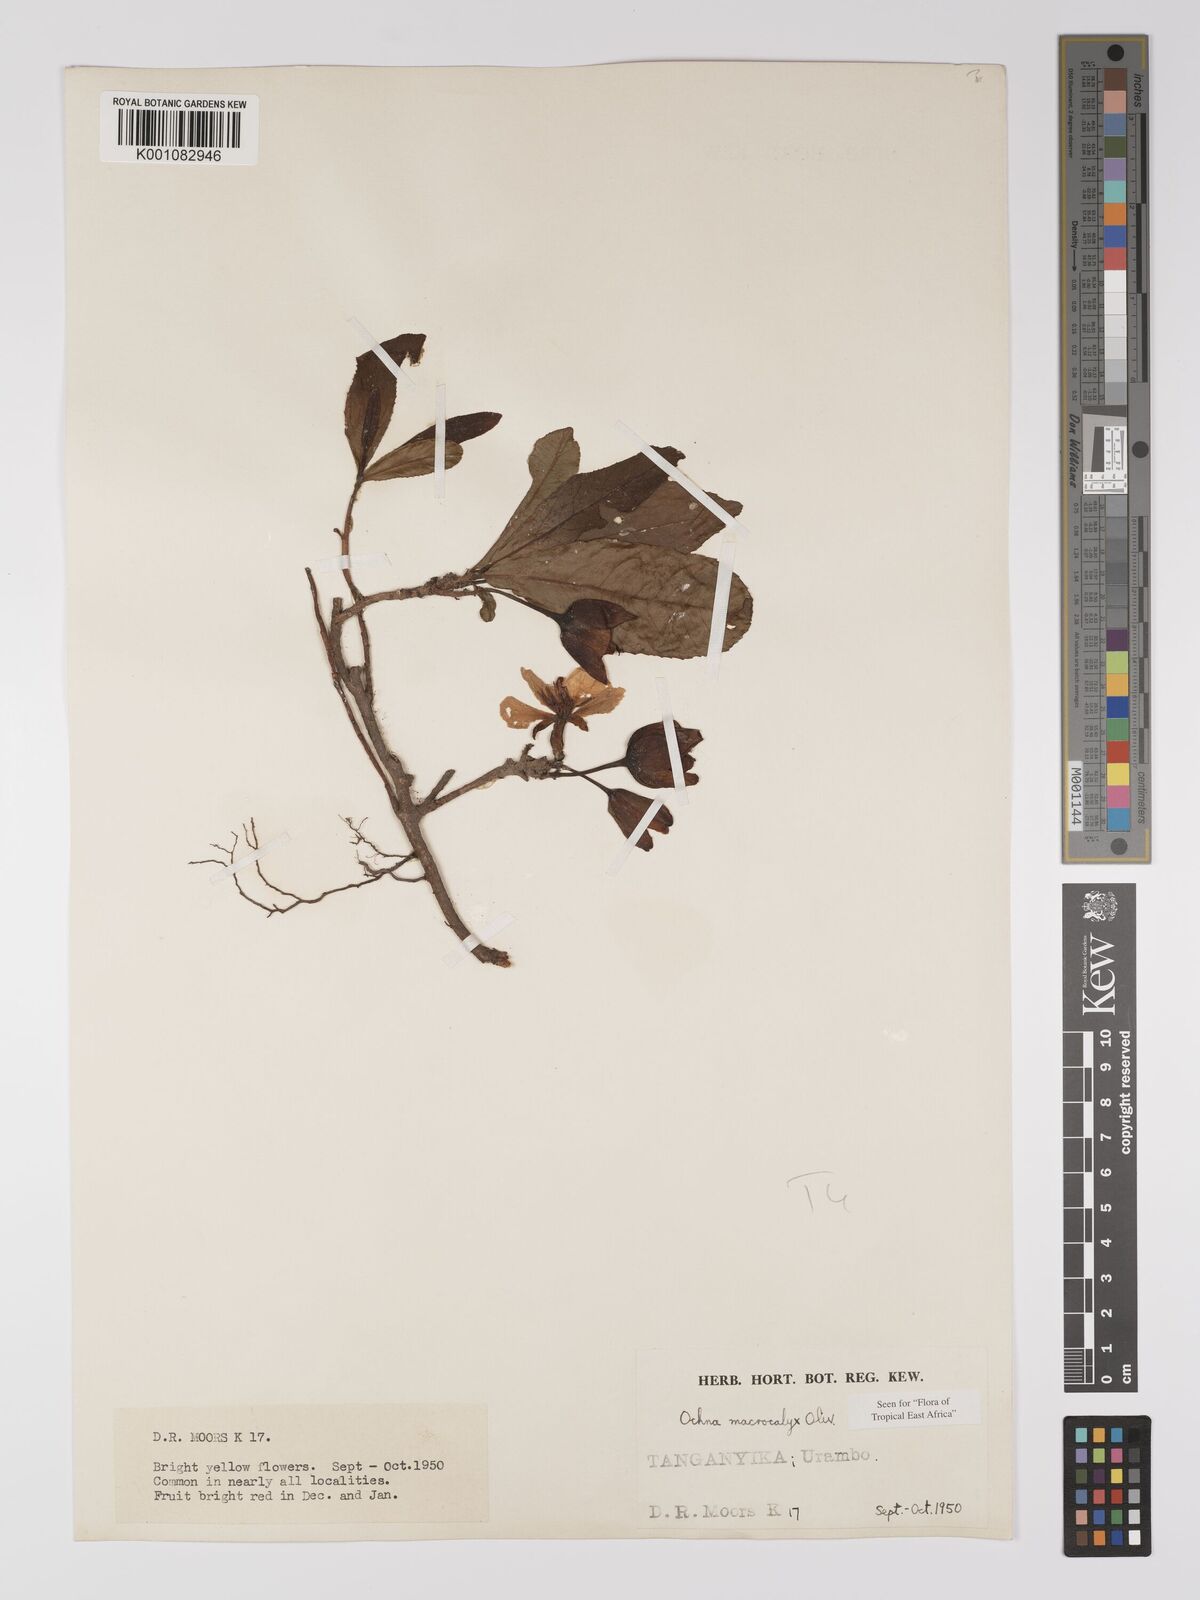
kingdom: Plantae
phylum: Tracheophyta
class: Magnoliopsida
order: Malpighiales
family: Ochnaceae
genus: Ochna
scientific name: Ochna macrocalyx
